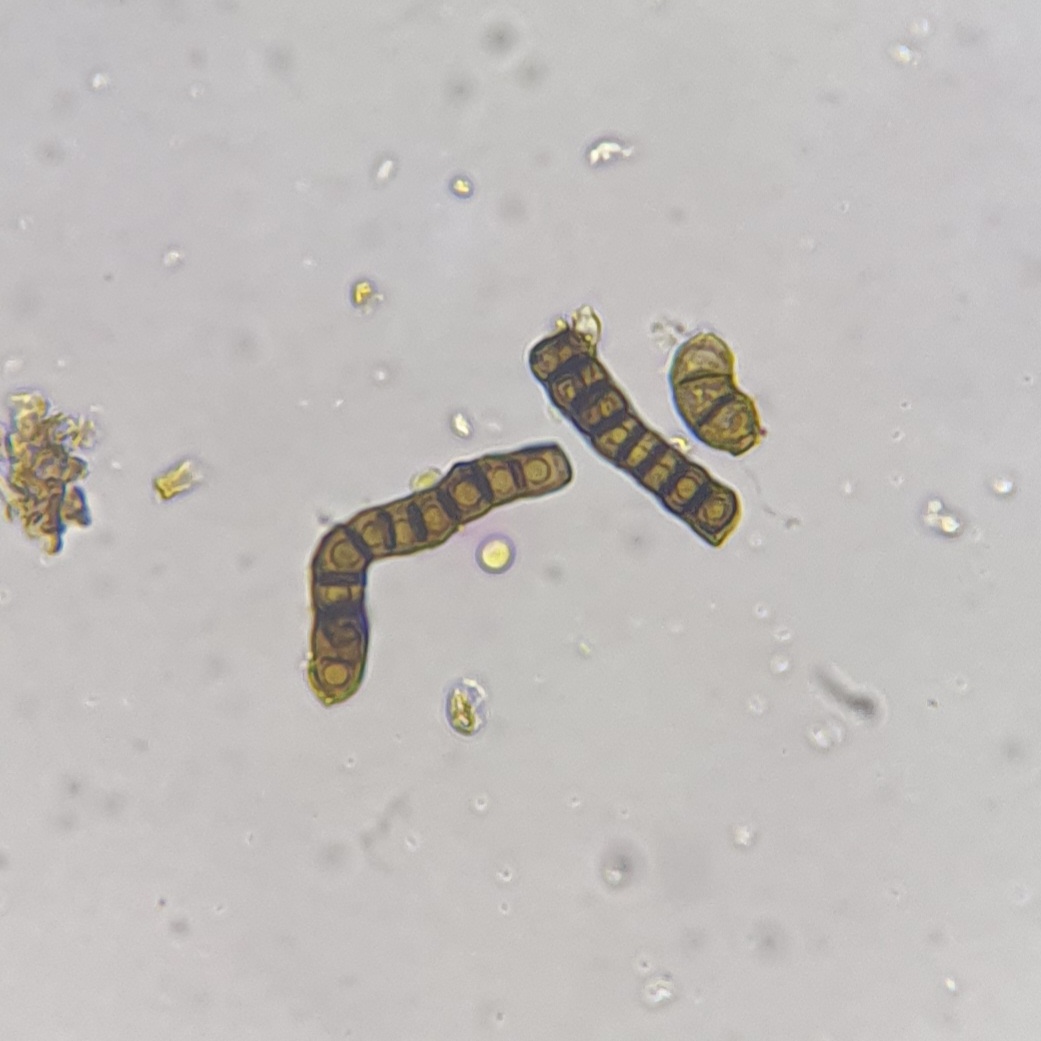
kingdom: Plantae
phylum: Bryophyta
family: Dothideomycetes
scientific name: Dothideomycetes
